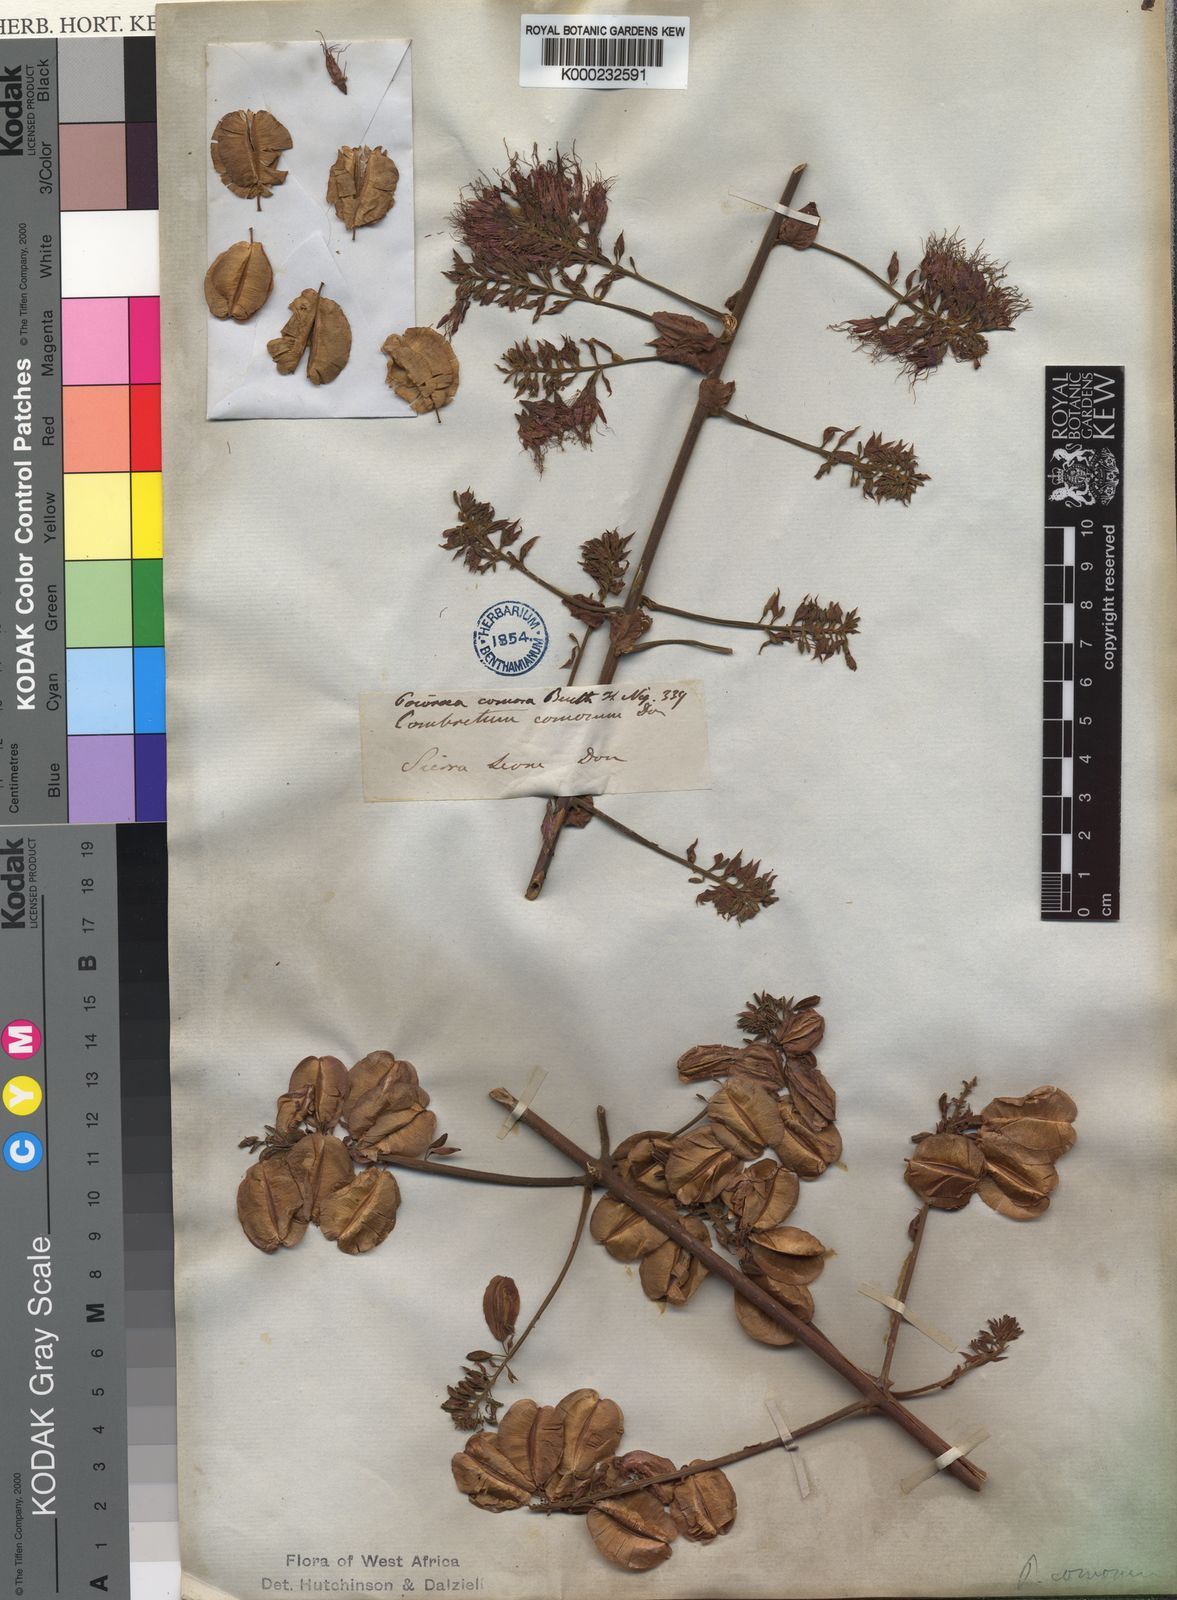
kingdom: Plantae
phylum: Tracheophyta
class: Magnoliopsida
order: Myrtales
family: Combretaceae
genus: Combretum
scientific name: Combretum comosum
